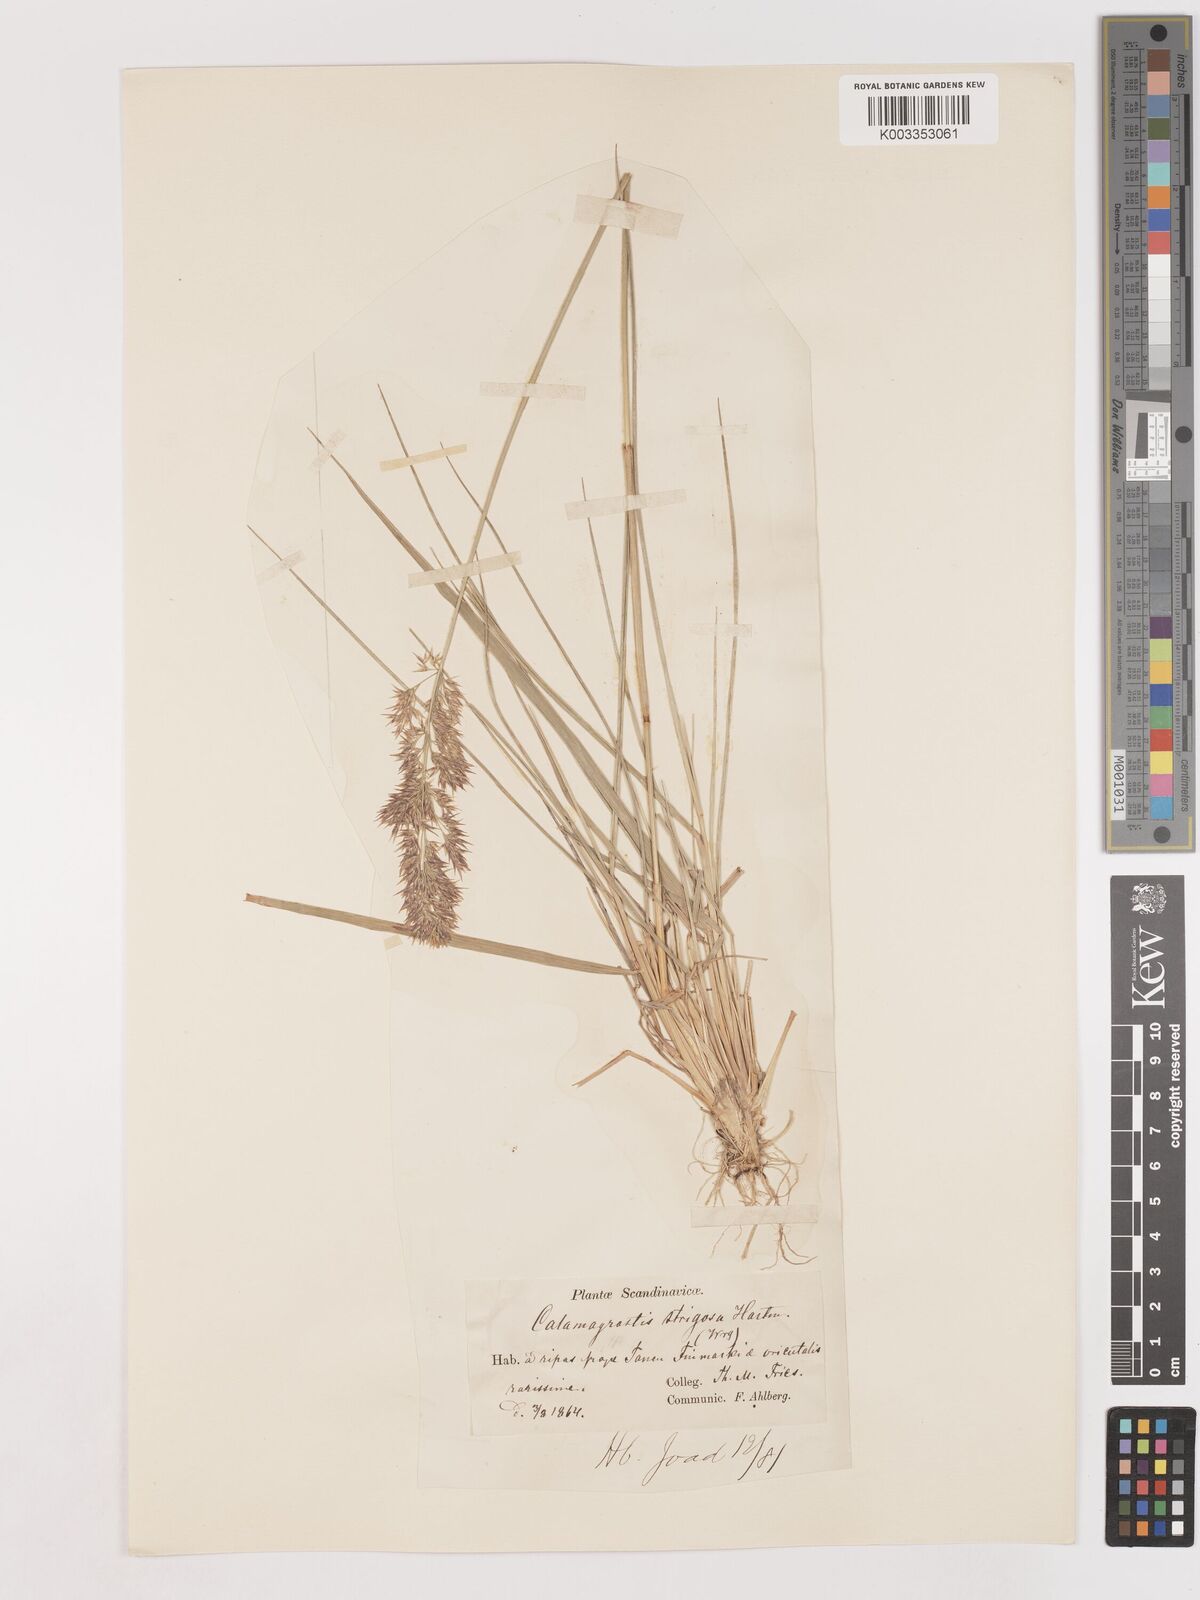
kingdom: Plantae
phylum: Tracheophyta
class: Liliopsida
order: Poales
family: Poaceae
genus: Calamagrostis
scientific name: Calamagrostis epigejos
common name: Wood small-reed
